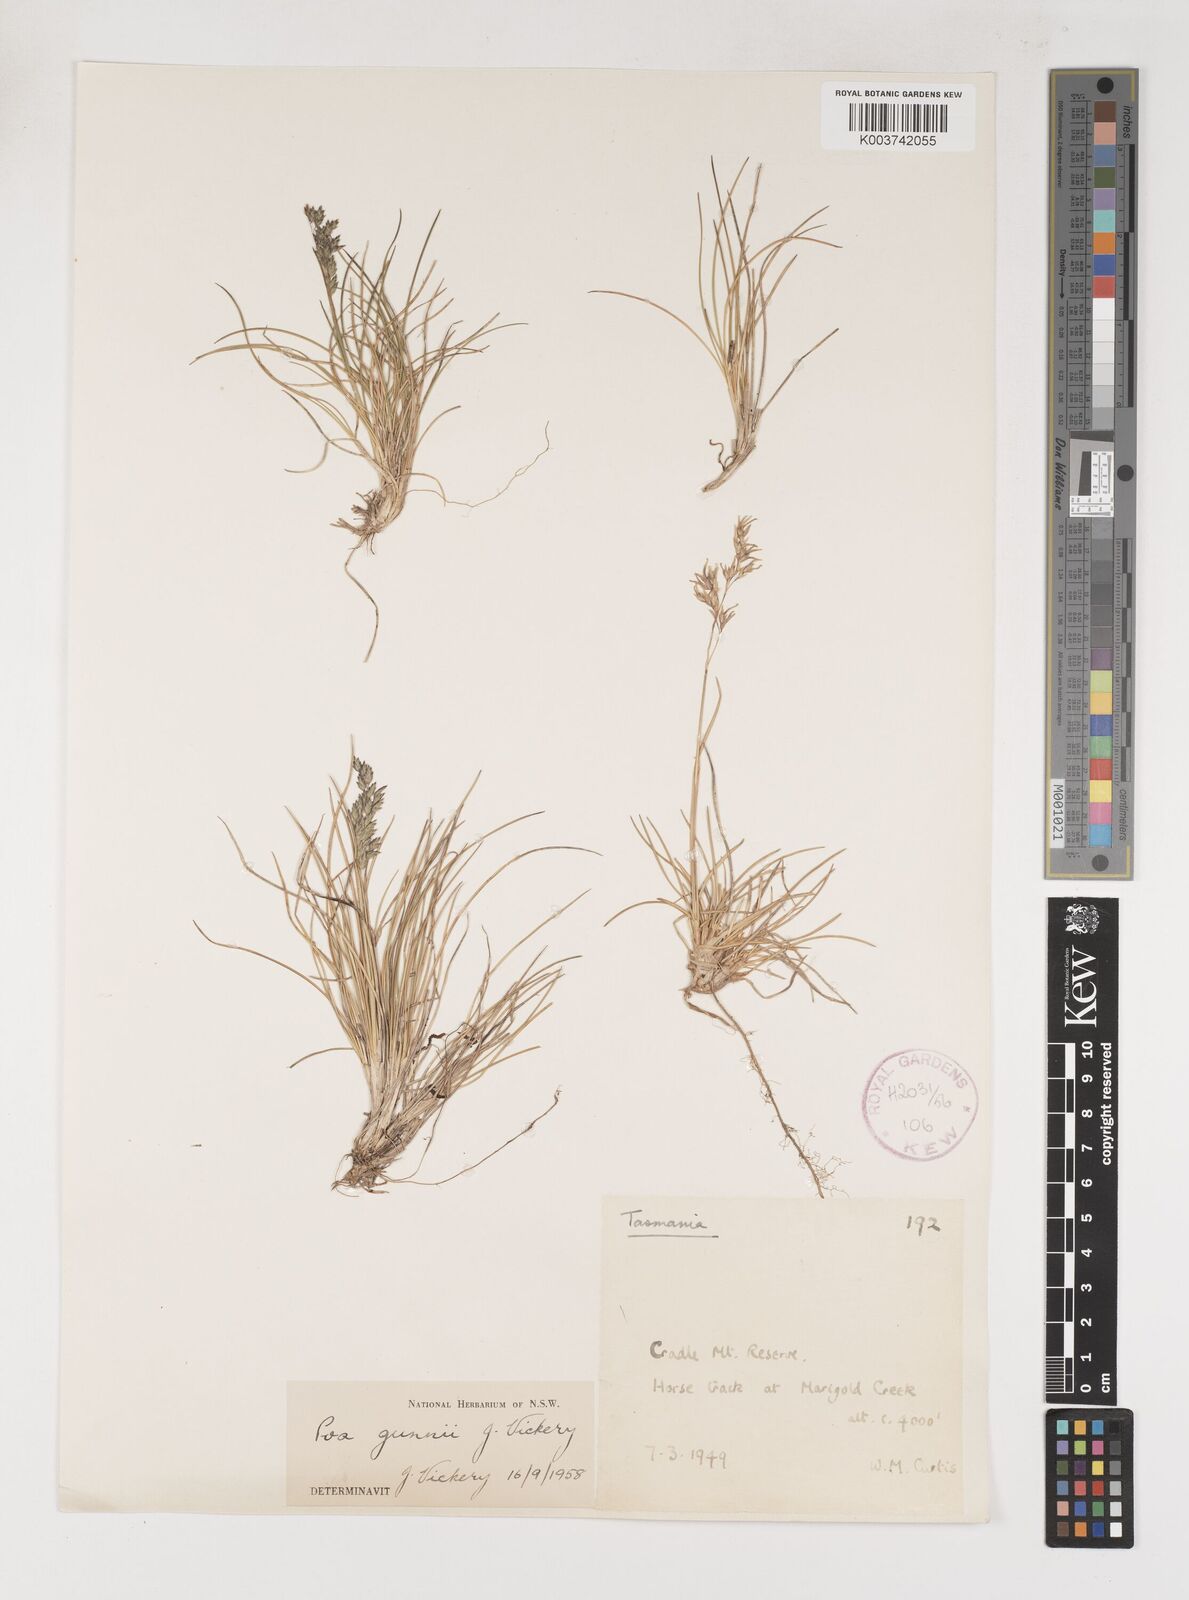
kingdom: Plantae
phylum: Tracheophyta
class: Liliopsida
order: Poales
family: Poaceae
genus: Poa
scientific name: Poa gunnii
